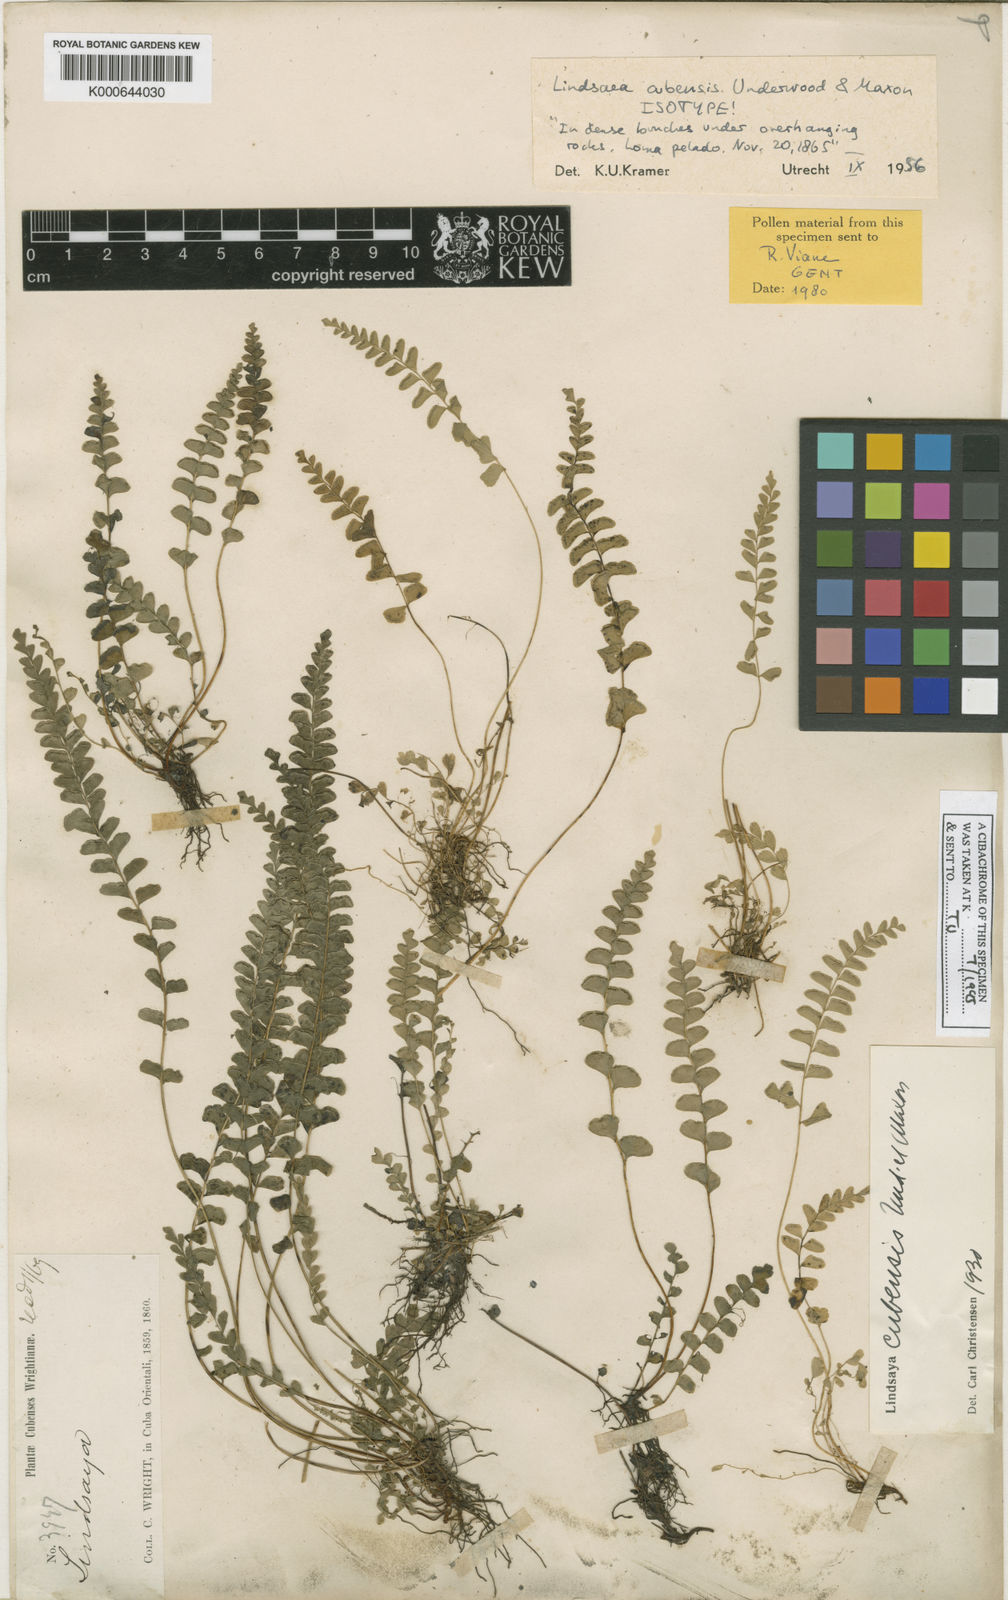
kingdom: Plantae
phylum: Tracheophyta
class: Polypodiopsida
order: Polypodiales
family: Lindsaeaceae
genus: Lindsaea
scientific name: Lindsaea cubensis
